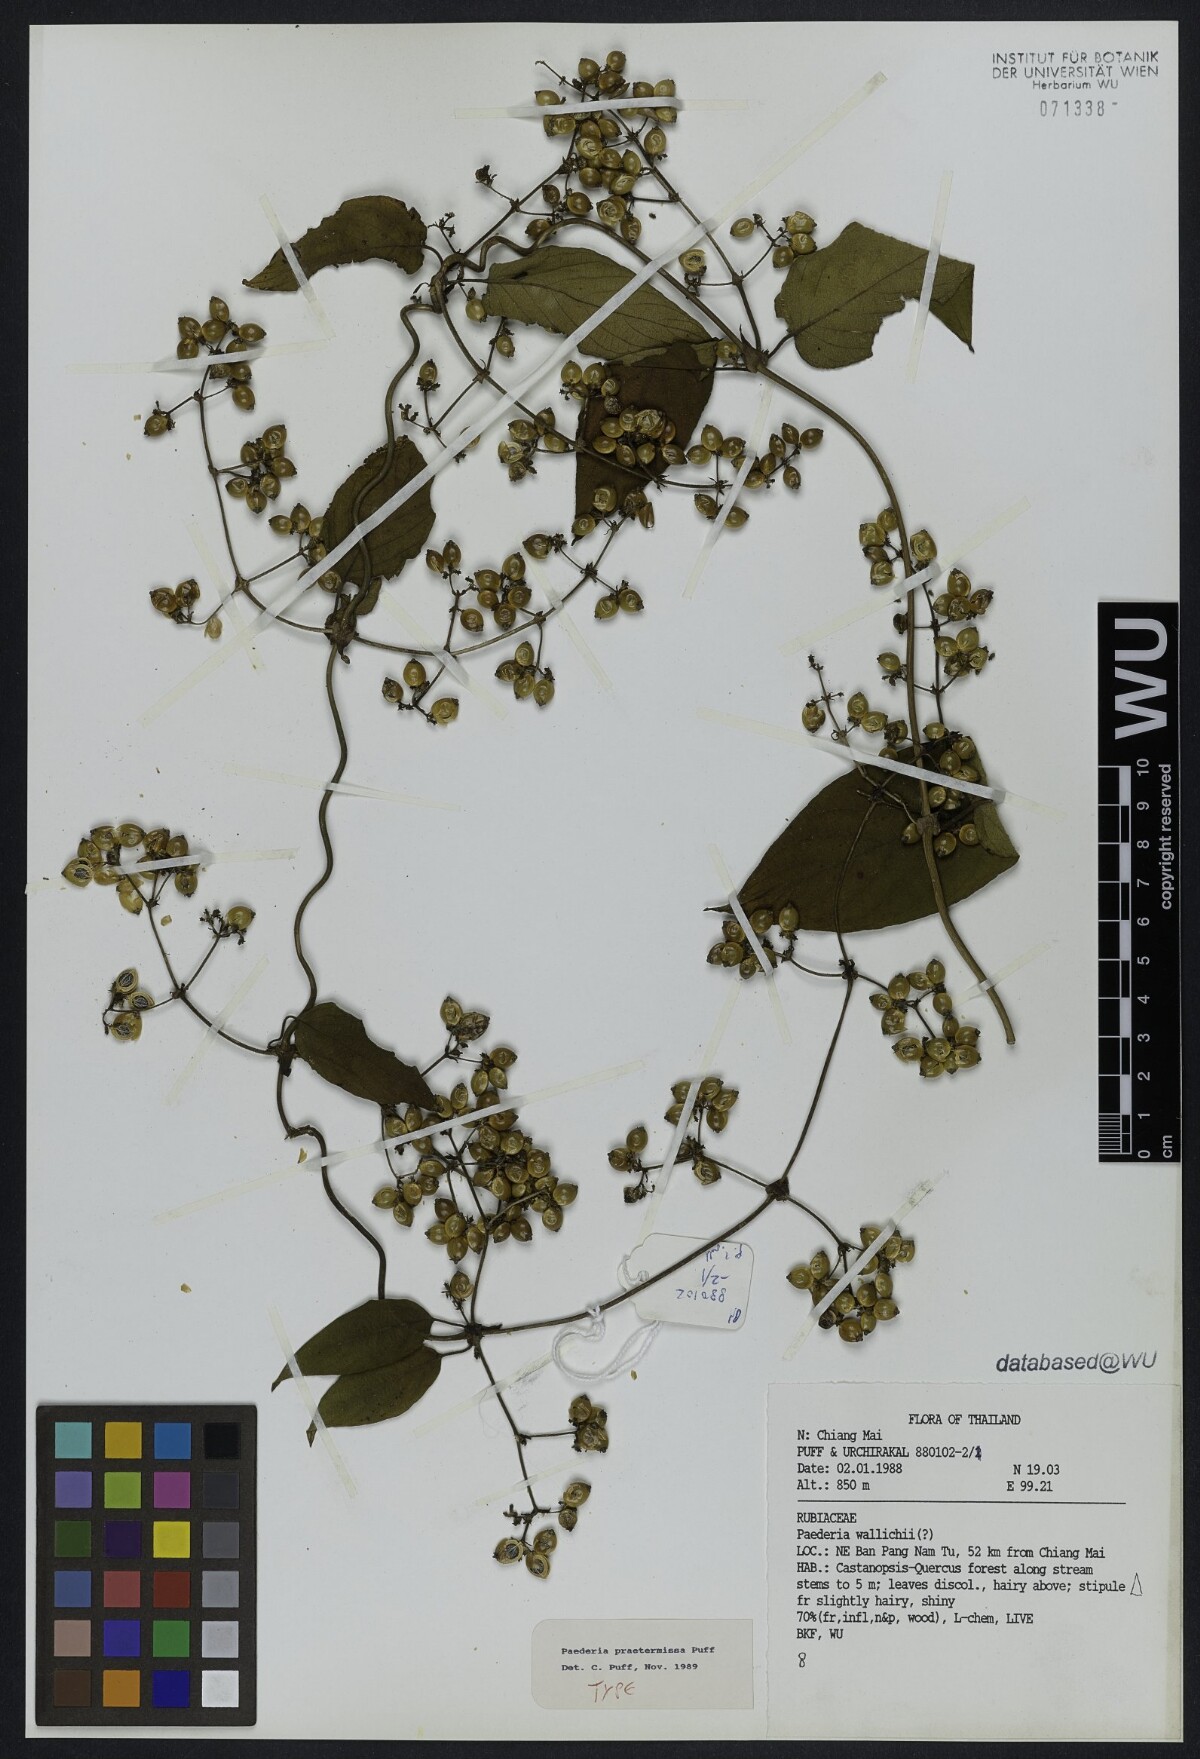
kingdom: Plantae
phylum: Tracheophyta
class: Magnoliopsida
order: Gentianales
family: Rubiaceae
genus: Paederia
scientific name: Paederia praetermissa
